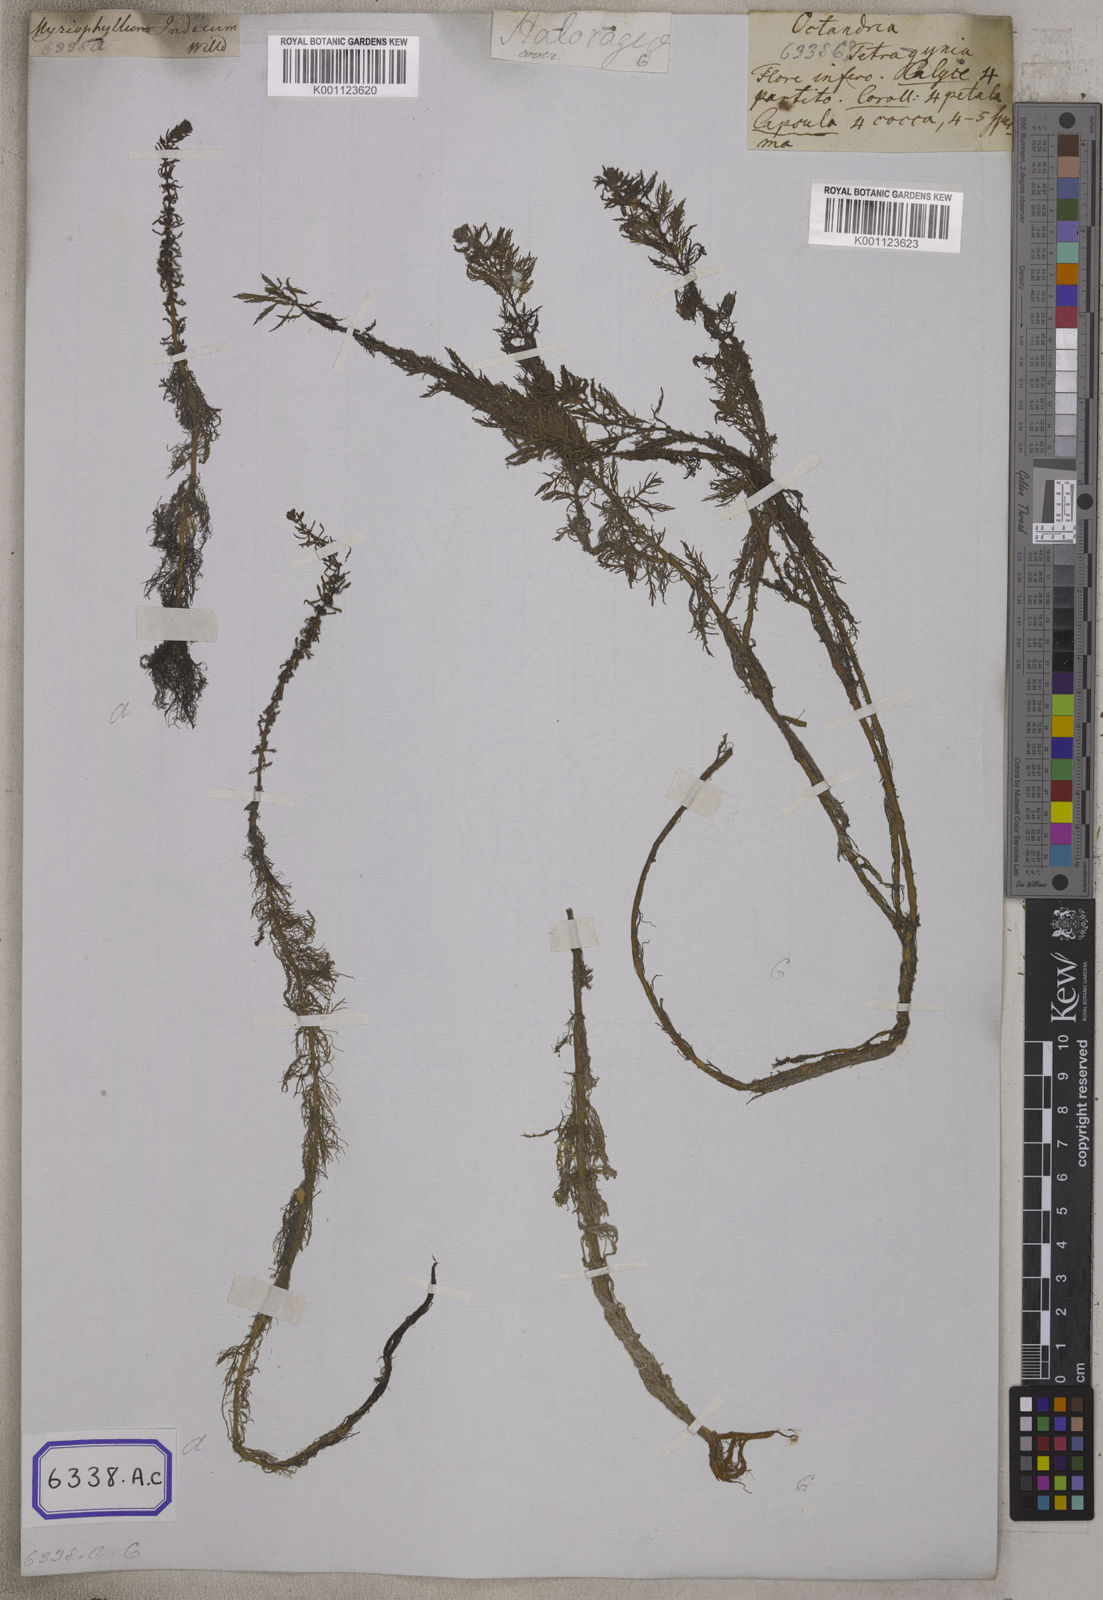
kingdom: Plantae
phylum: Tracheophyta
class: Magnoliopsida
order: Saxifragales
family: Haloragaceae
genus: Myriophyllum
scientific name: Myriophyllum indicum
